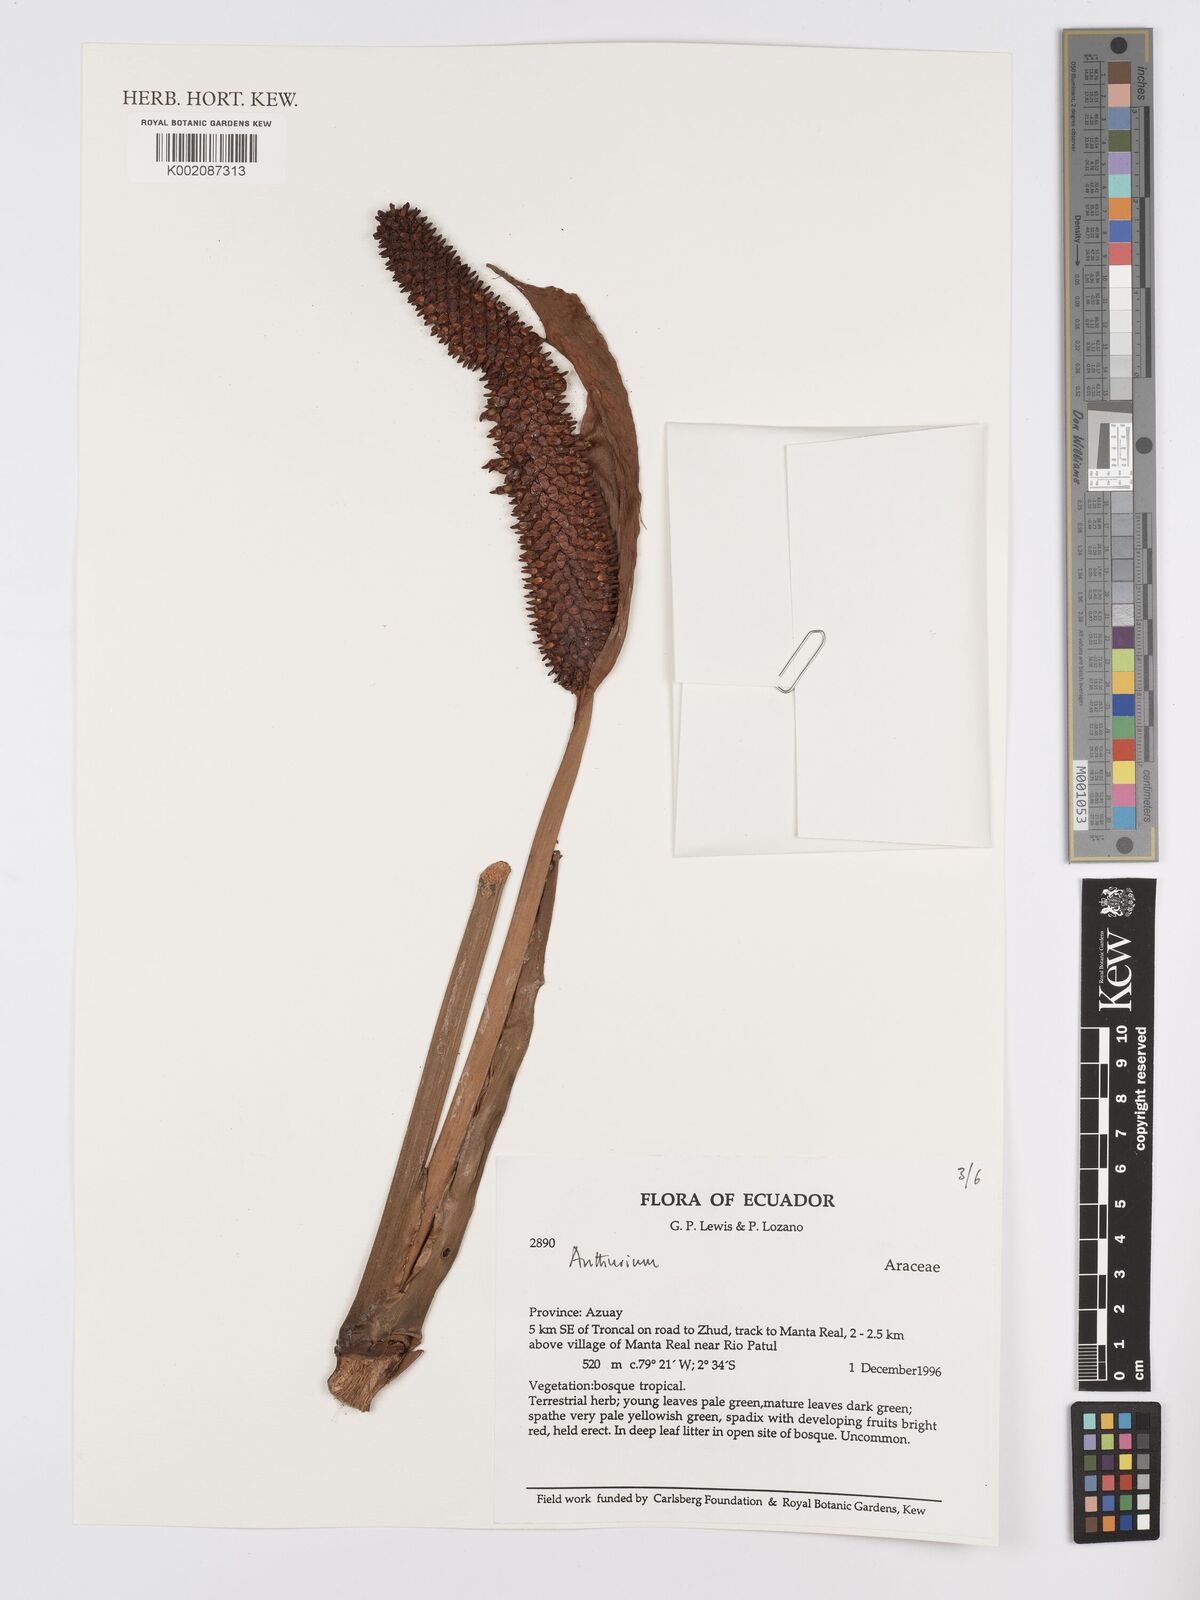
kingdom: Plantae
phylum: Tracheophyta
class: Liliopsida
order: Alismatales
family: Araceae
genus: Anthurium
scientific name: Anthurium
